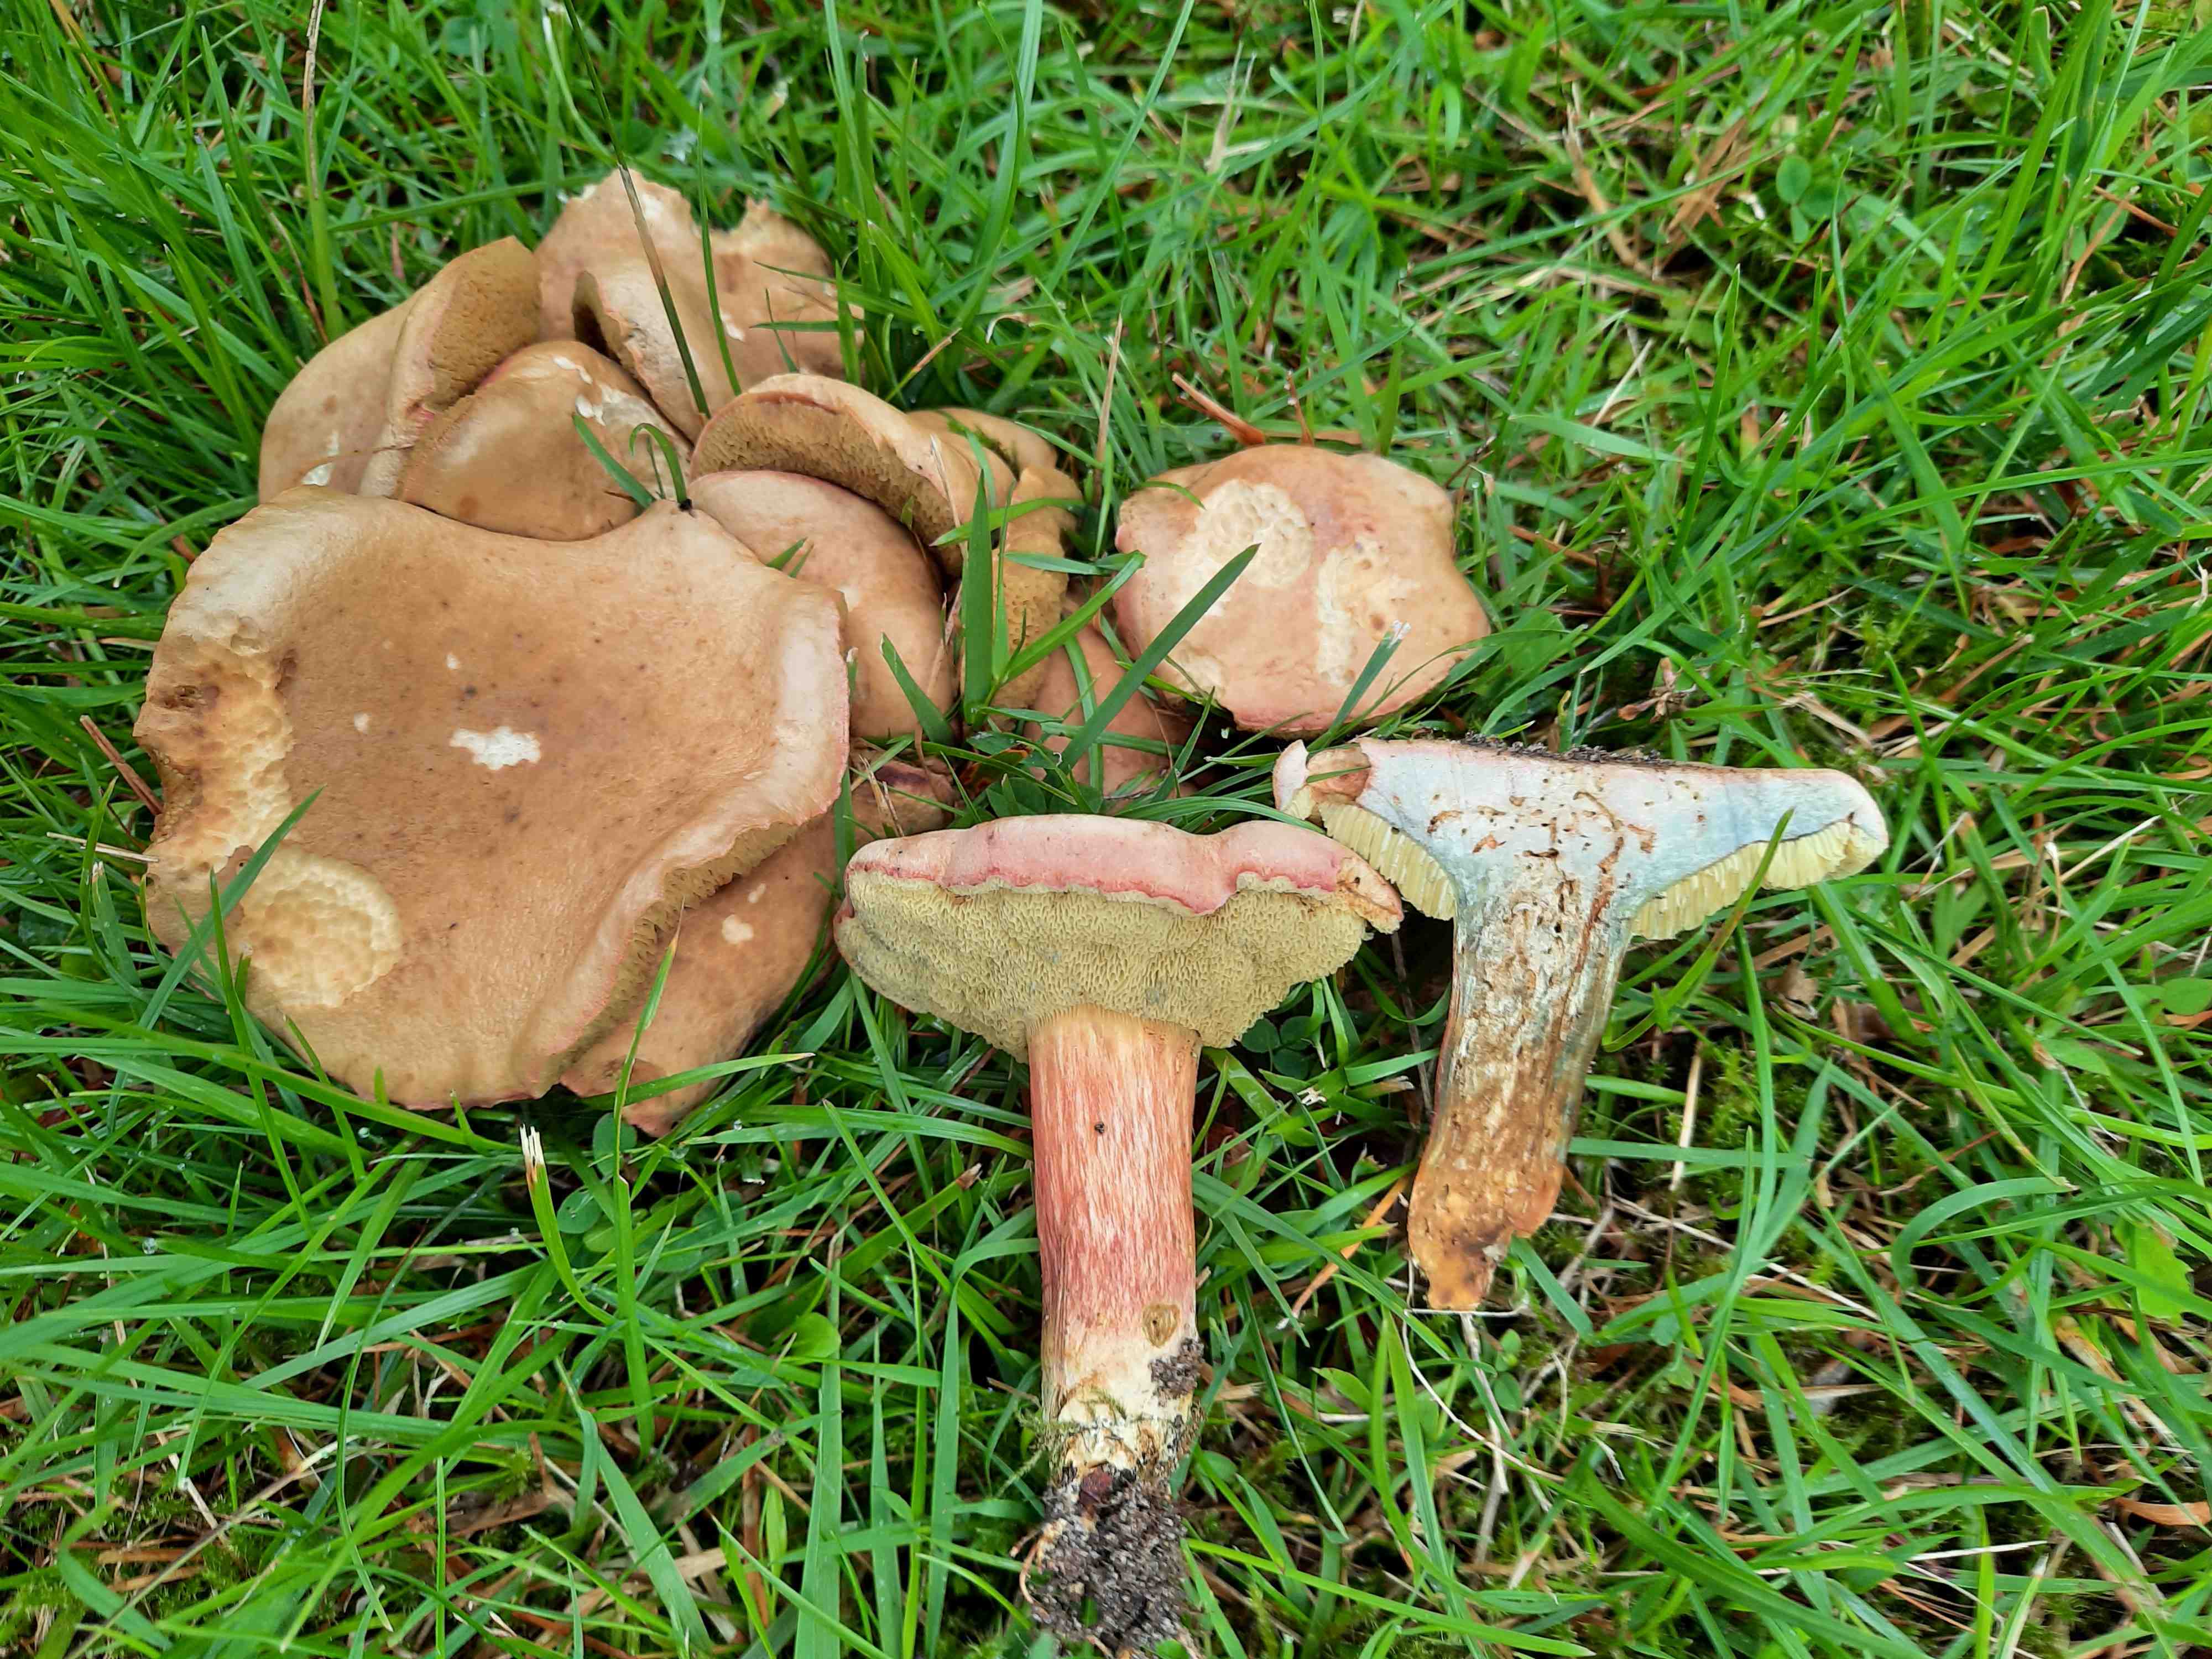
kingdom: Fungi
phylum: Basidiomycota
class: Agaricomycetes
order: Boletales
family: Boletaceae
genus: Hortiboletus
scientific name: Hortiboletus bubalinus
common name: aurora-rørhat
